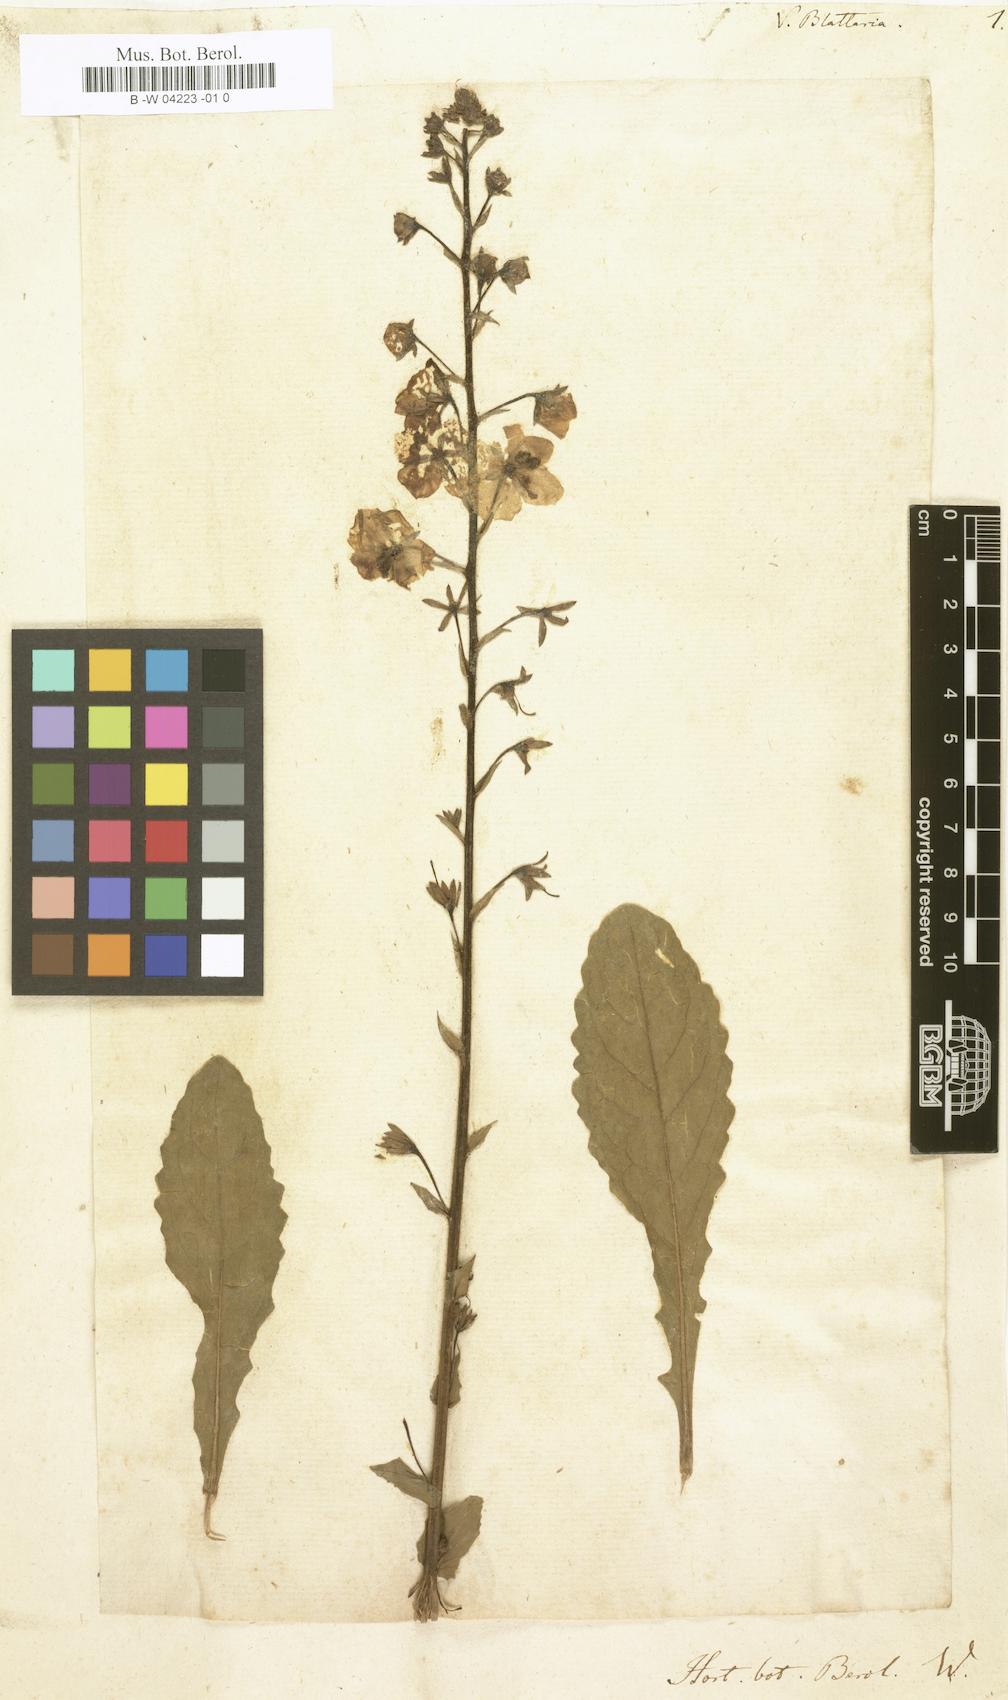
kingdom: Plantae
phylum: Tracheophyta
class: Magnoliopsida
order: Lamiales
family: Scrophulariaceae
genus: Verbascum
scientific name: Verbascum blattaria
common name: Moth mullein
